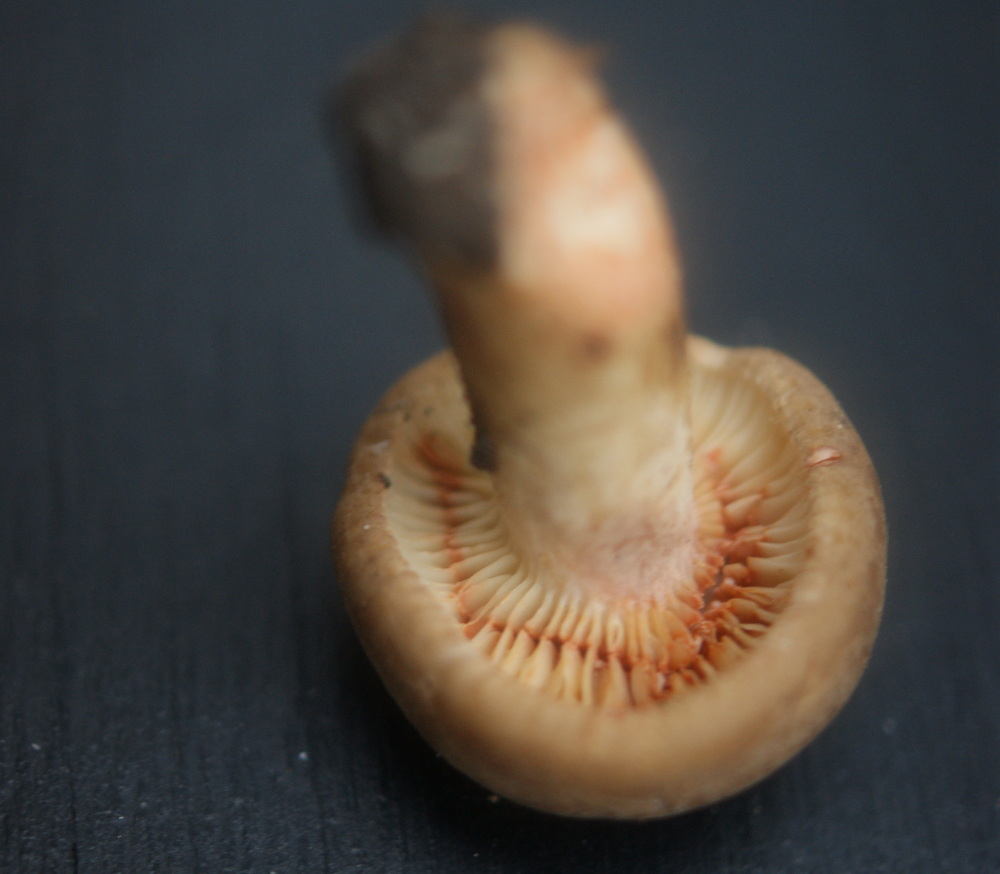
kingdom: Fungi
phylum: Basidiomycota
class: Agaricomycetes
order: Russulales
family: Russulaceae
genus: Lactarius
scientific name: Lactarius acris
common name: rosamælket mælkehat
